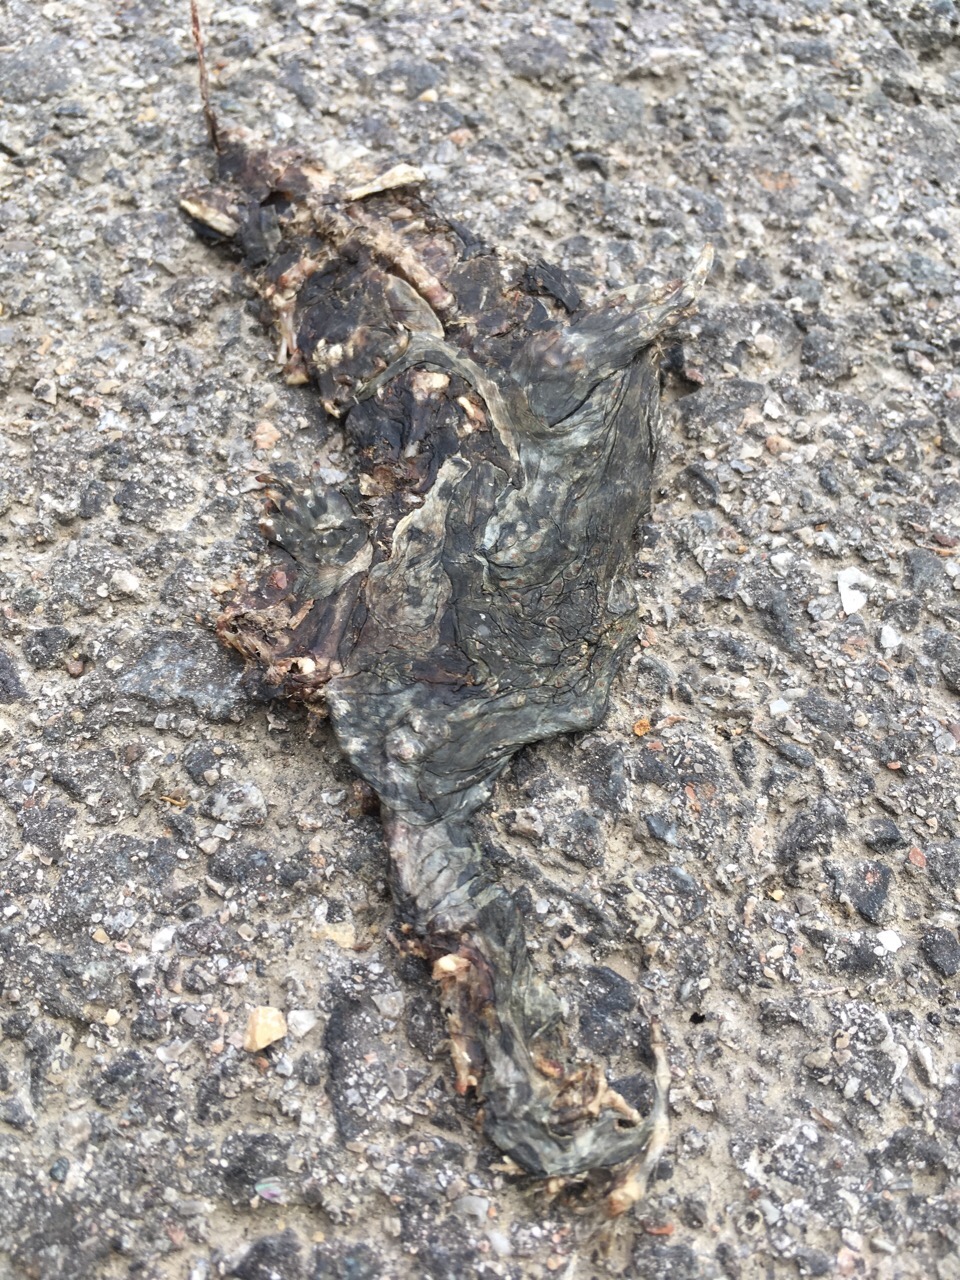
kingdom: Animalia
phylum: Chordata
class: Amphibia
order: Anura
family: Bufonidae
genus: Bufotes
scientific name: Bufotes viridis
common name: European green toad
